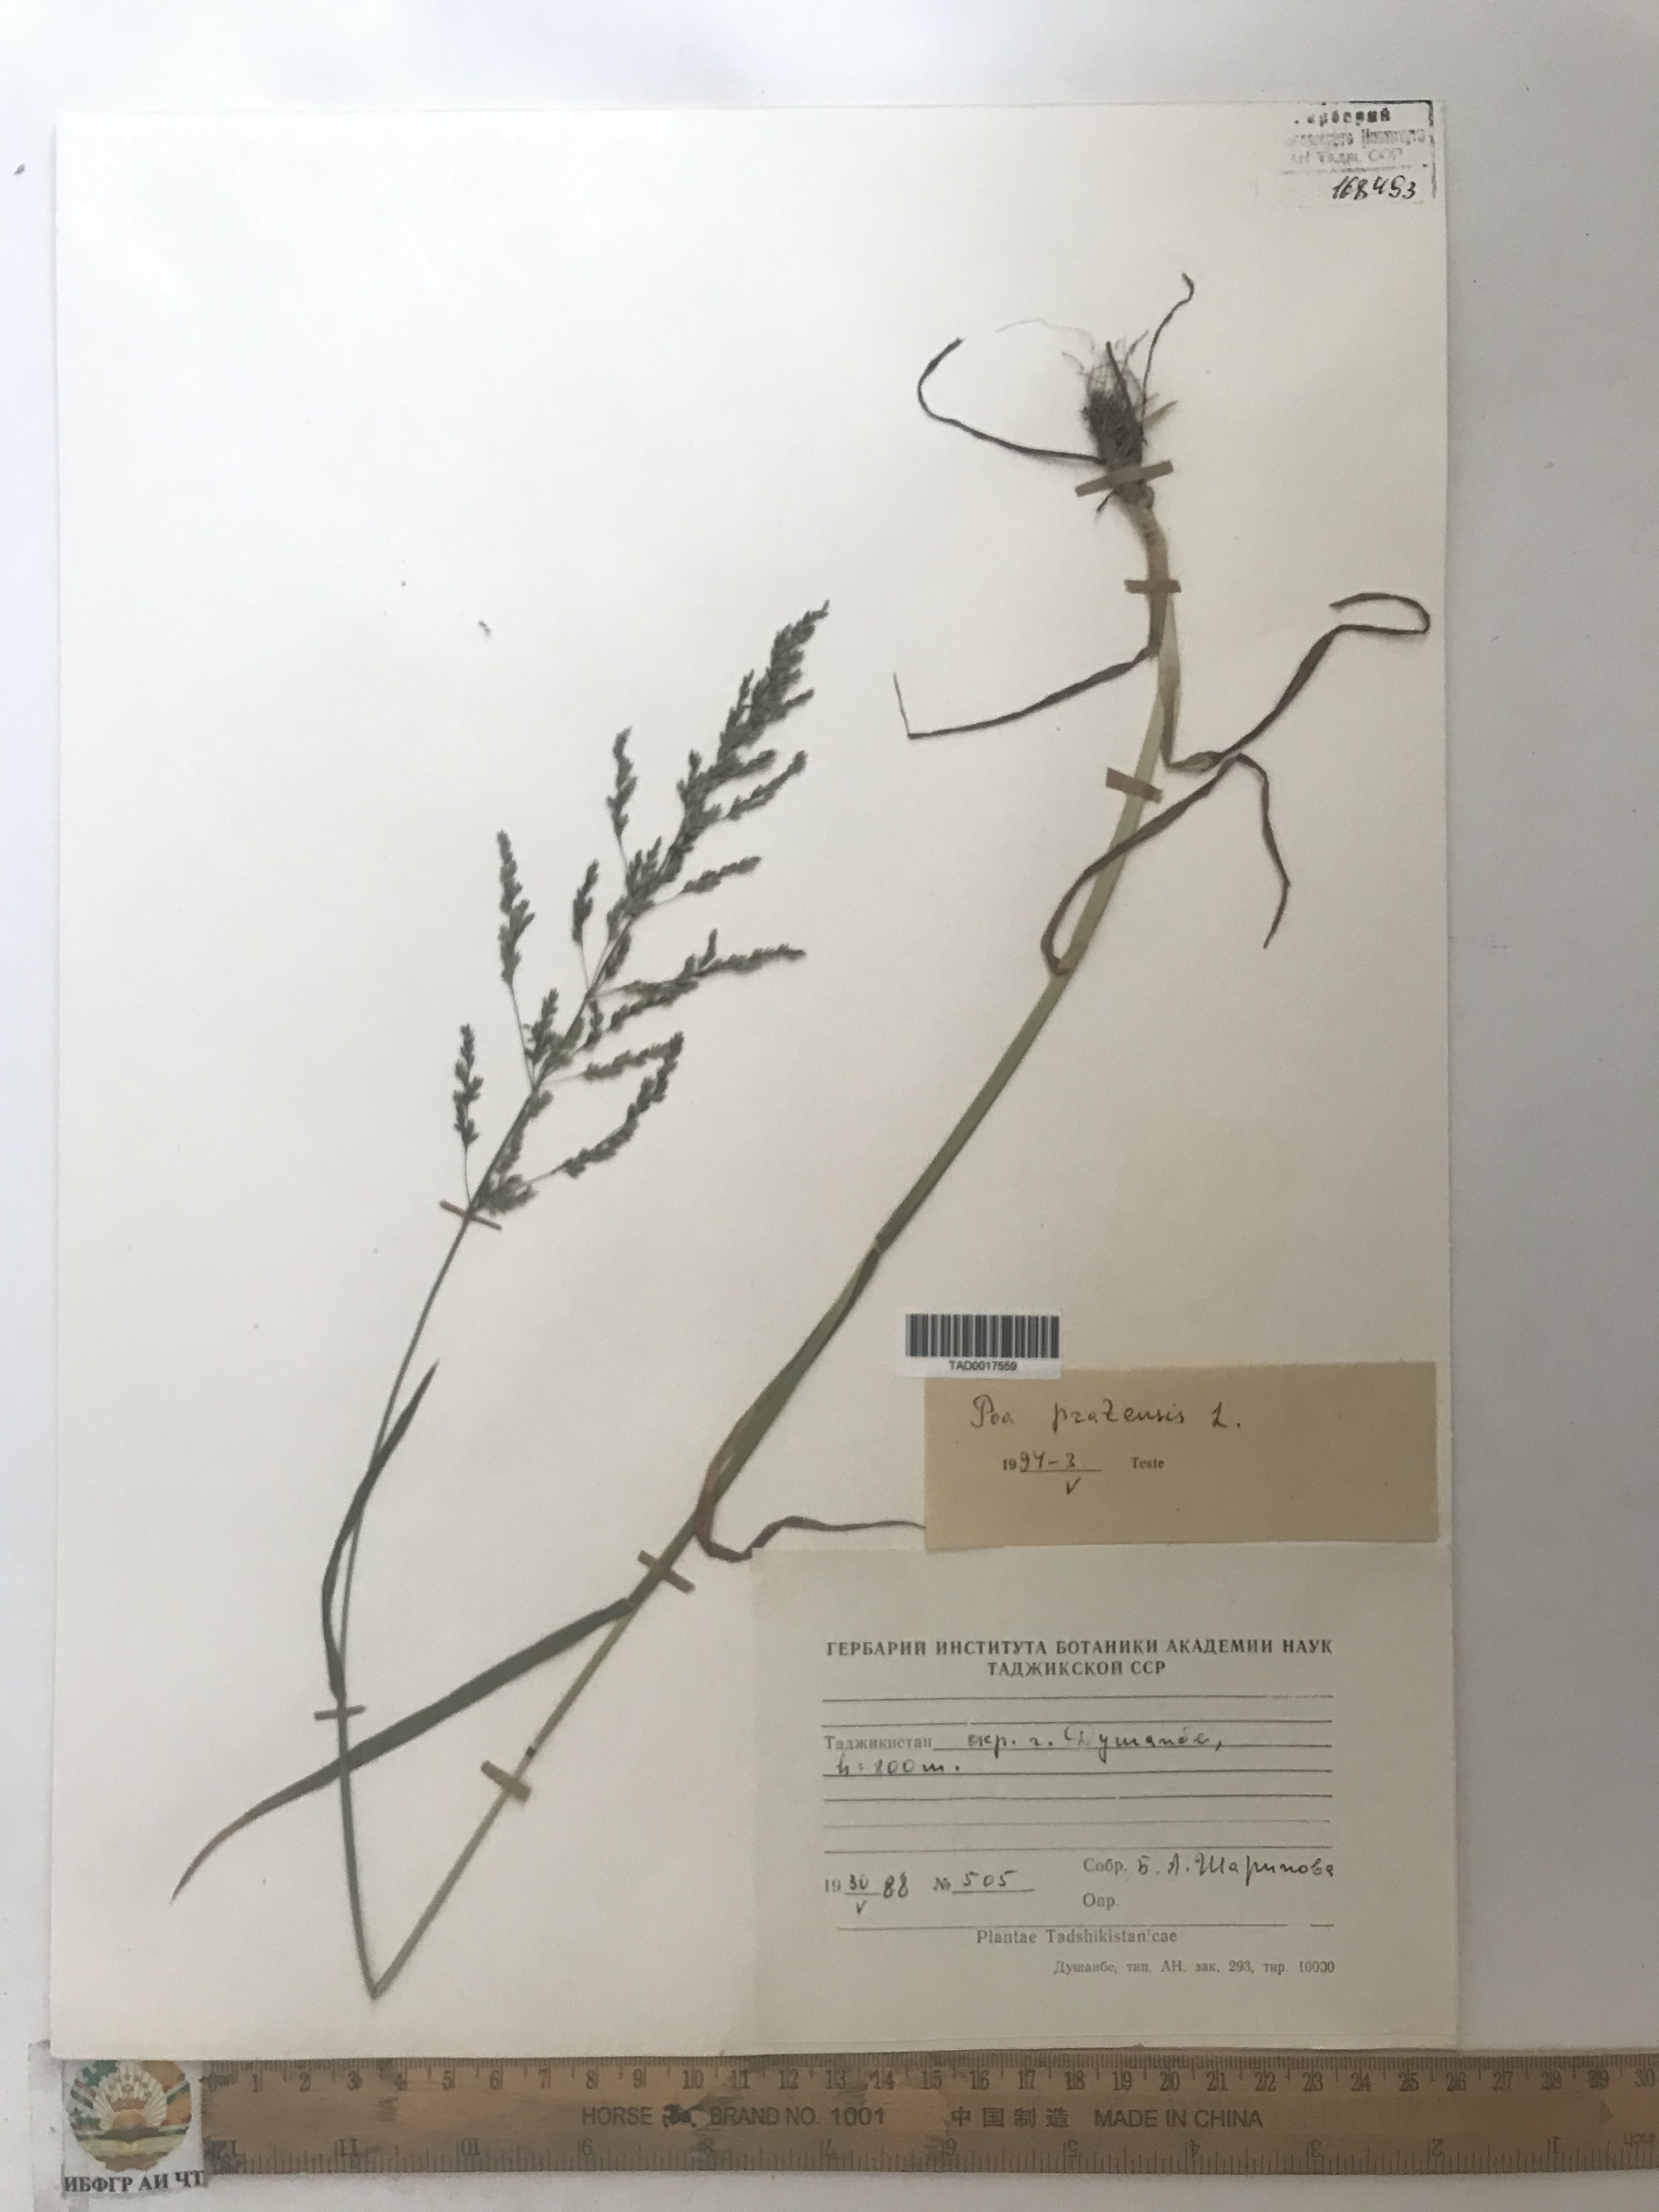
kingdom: Plantae
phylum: Tracheophyta
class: Liliopsida
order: Poales
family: Poaceae
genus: Poa
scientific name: Poa pratensis
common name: Kentucky bluegrass
